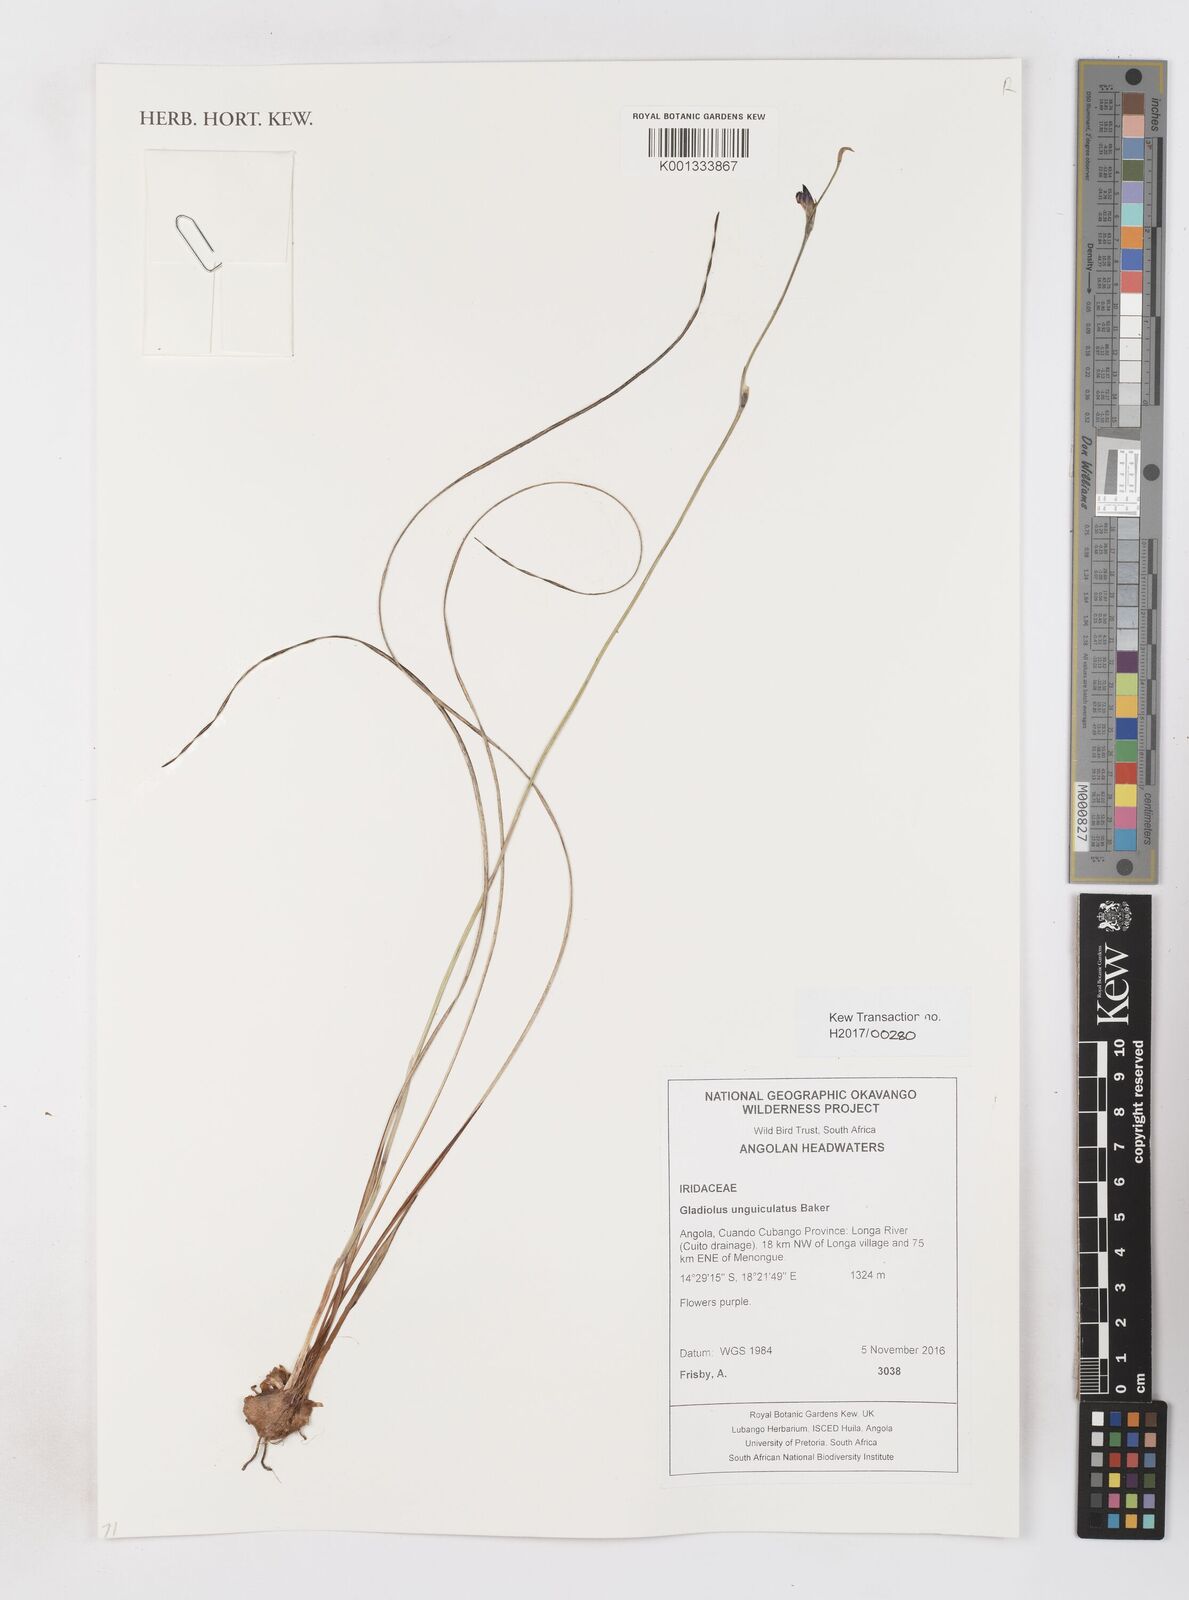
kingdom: Plantae
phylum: Tracheophyta
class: Liliopsida
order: Asparagales
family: Iridaceae
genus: Gladiolus
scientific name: Gladiolus unguiculatus
